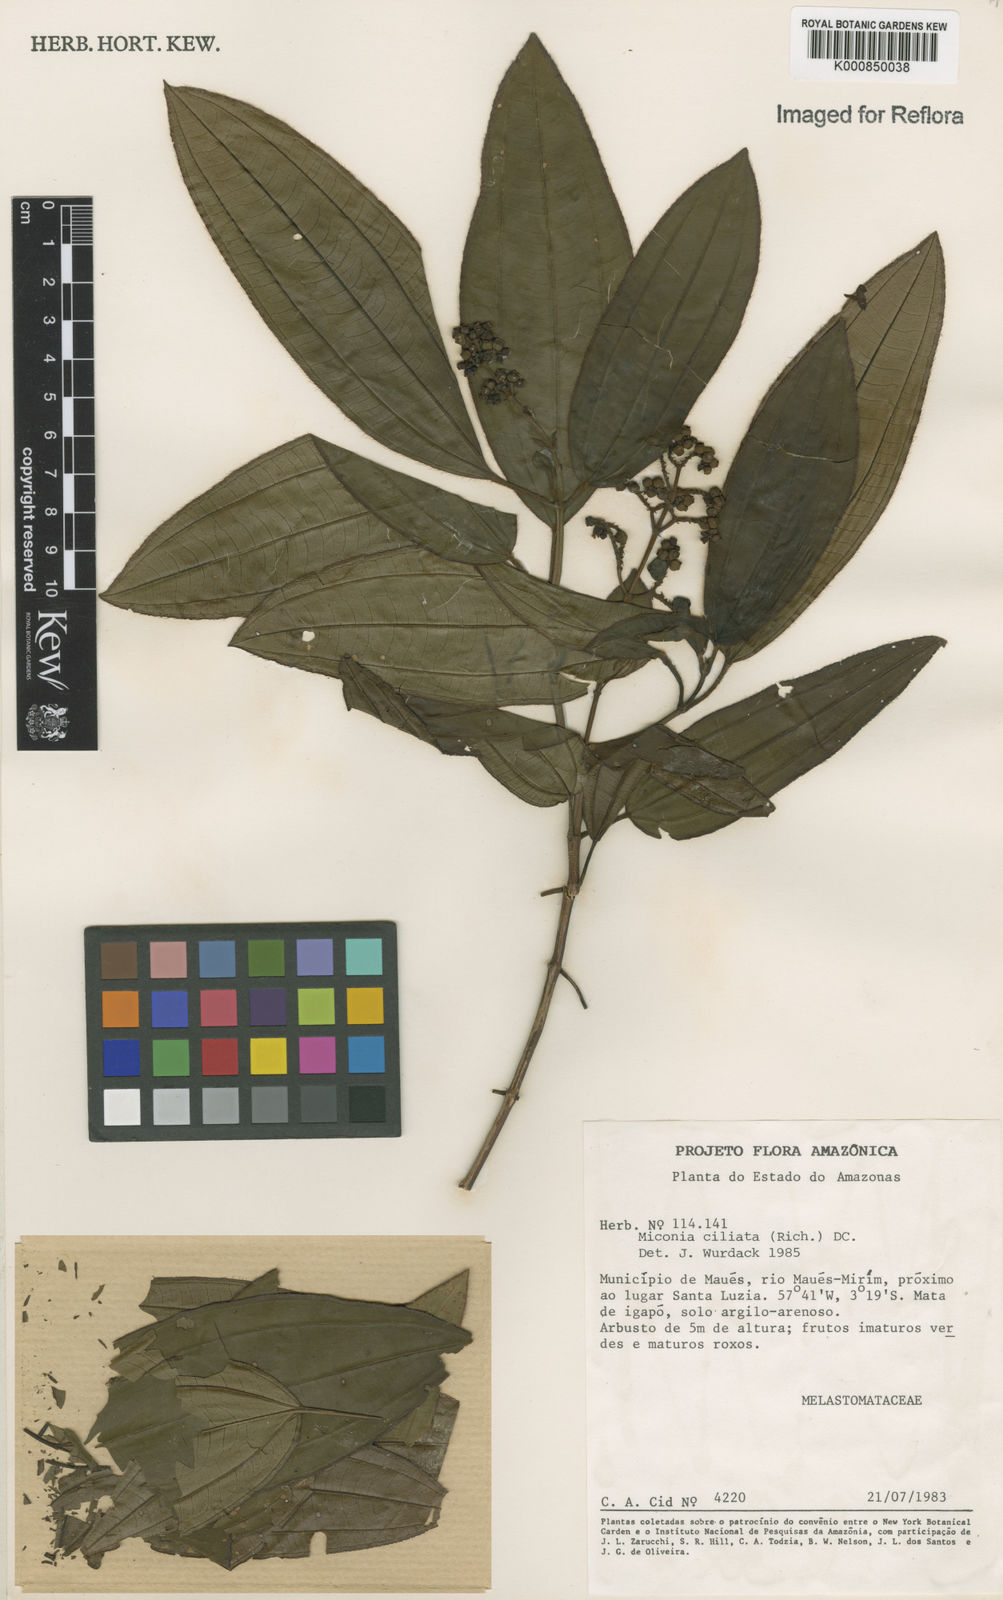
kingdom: Plantae
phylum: Tracheophyta
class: Magnoliopsida
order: Myrtales
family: Melastomataceae
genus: Miconia
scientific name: Miconia ciliata
